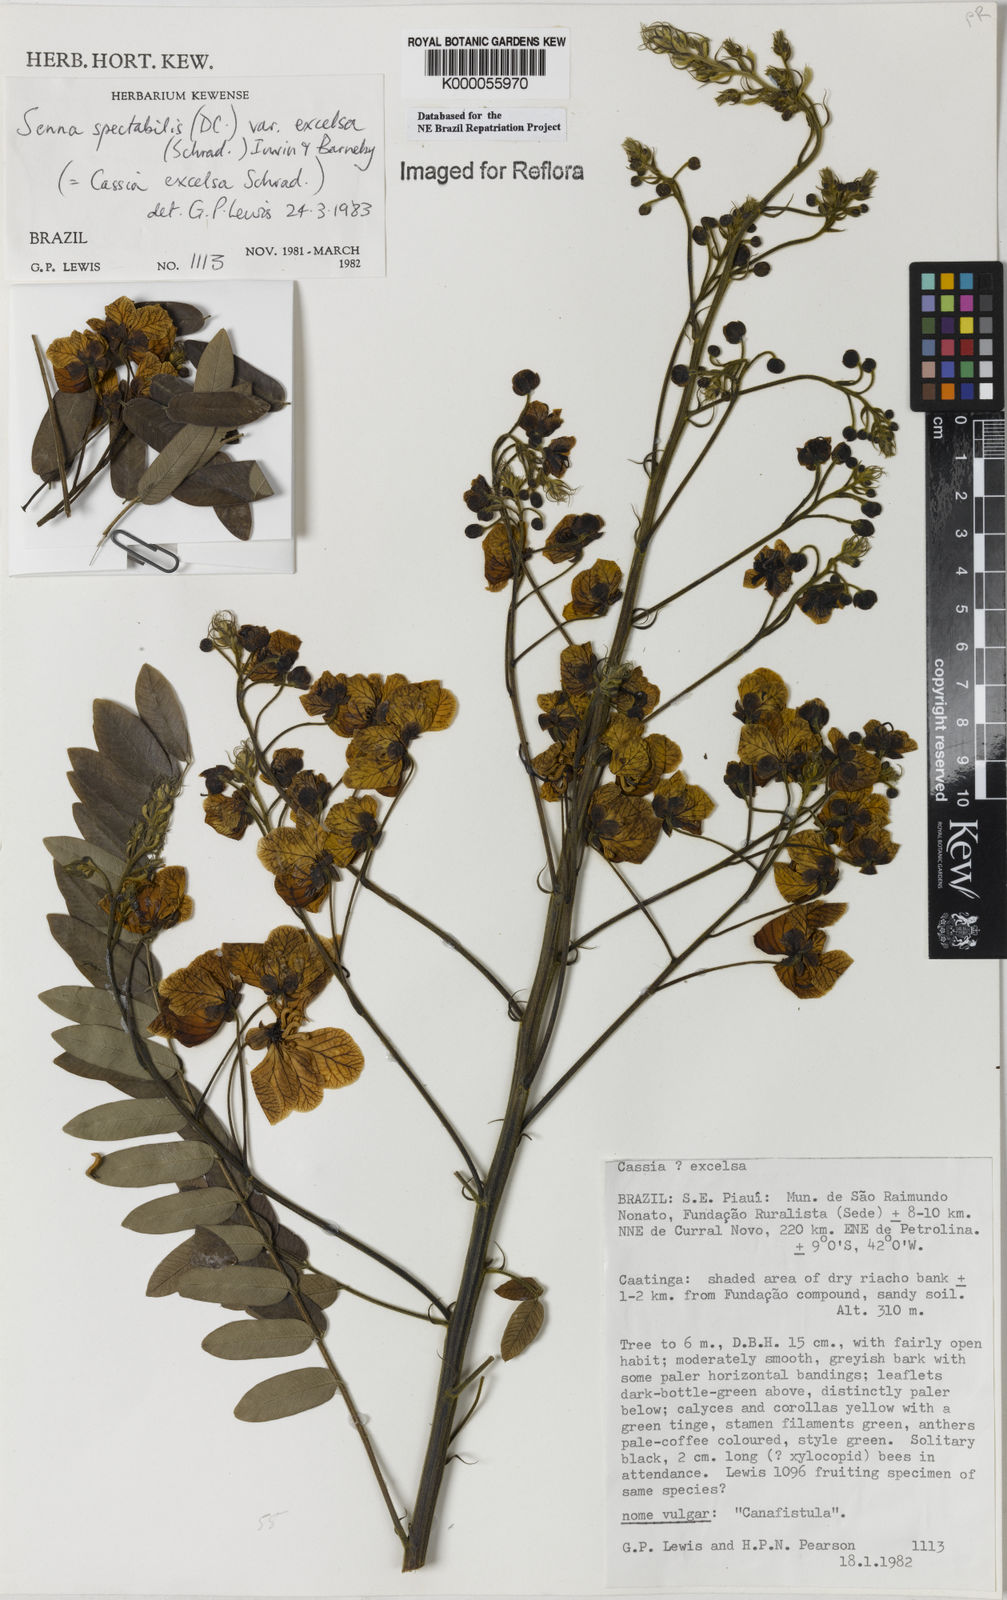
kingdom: Plantae
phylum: Tracheophyta
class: Magnoliopsida
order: Fabales
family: Fabaceae
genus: Senna
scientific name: Senna spectabilis
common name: Casia amarilla
